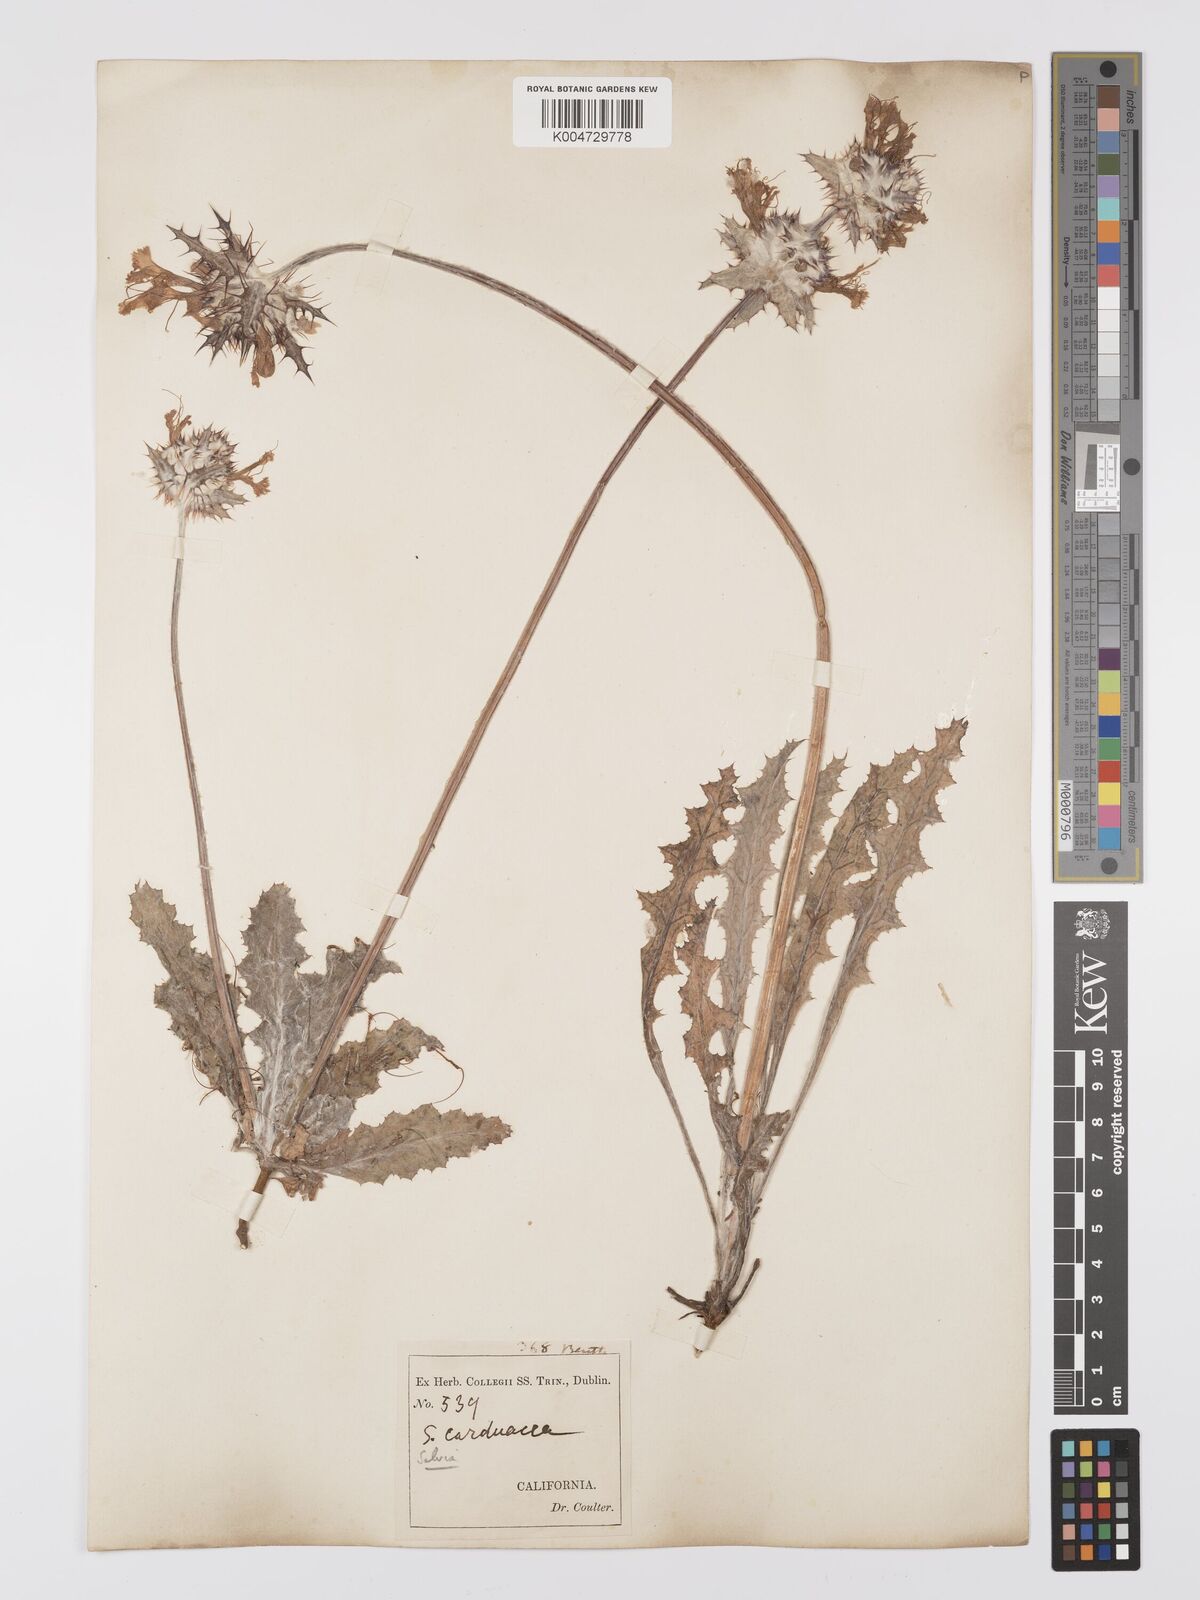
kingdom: Plantae
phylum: Tracheophyta
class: Magnoliopsida
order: Lamiales
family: Lamiaceae
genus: Salvia
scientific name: Salvia carduacea
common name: Thistle sage
